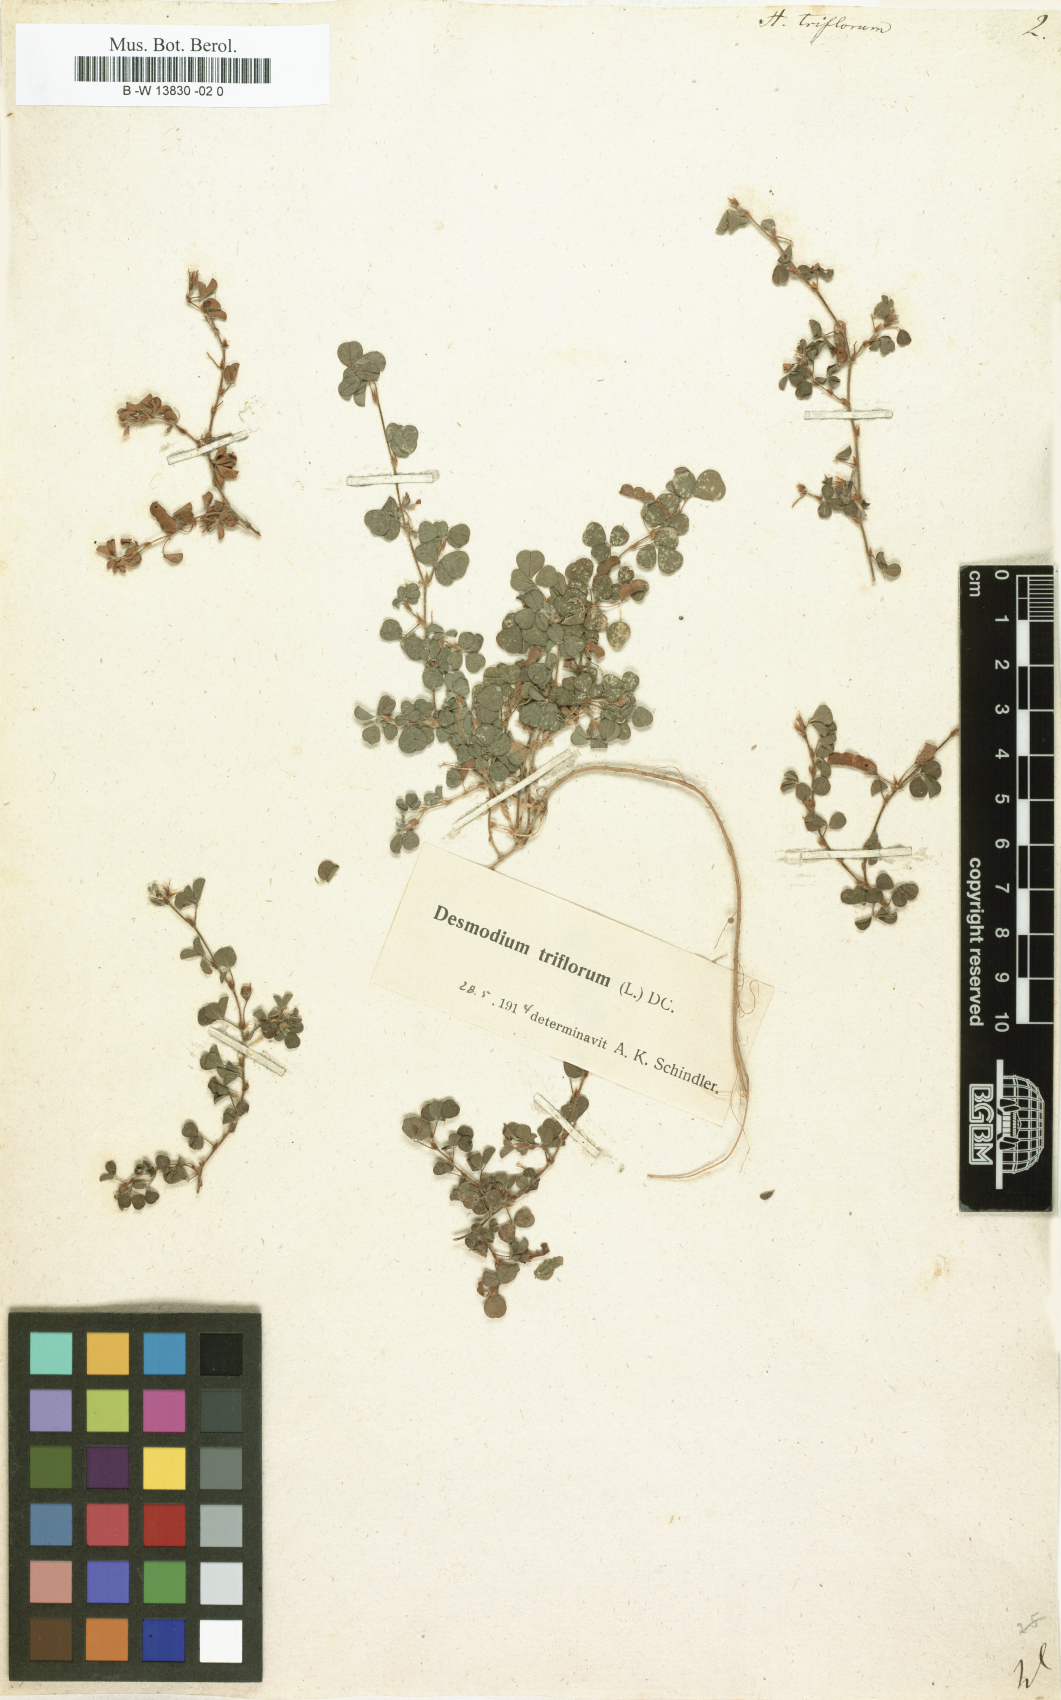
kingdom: Plantae
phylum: Tracheophyta
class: Magnoliopsida
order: Fabales
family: Fabaceae
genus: Grona
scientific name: Grona triflora
